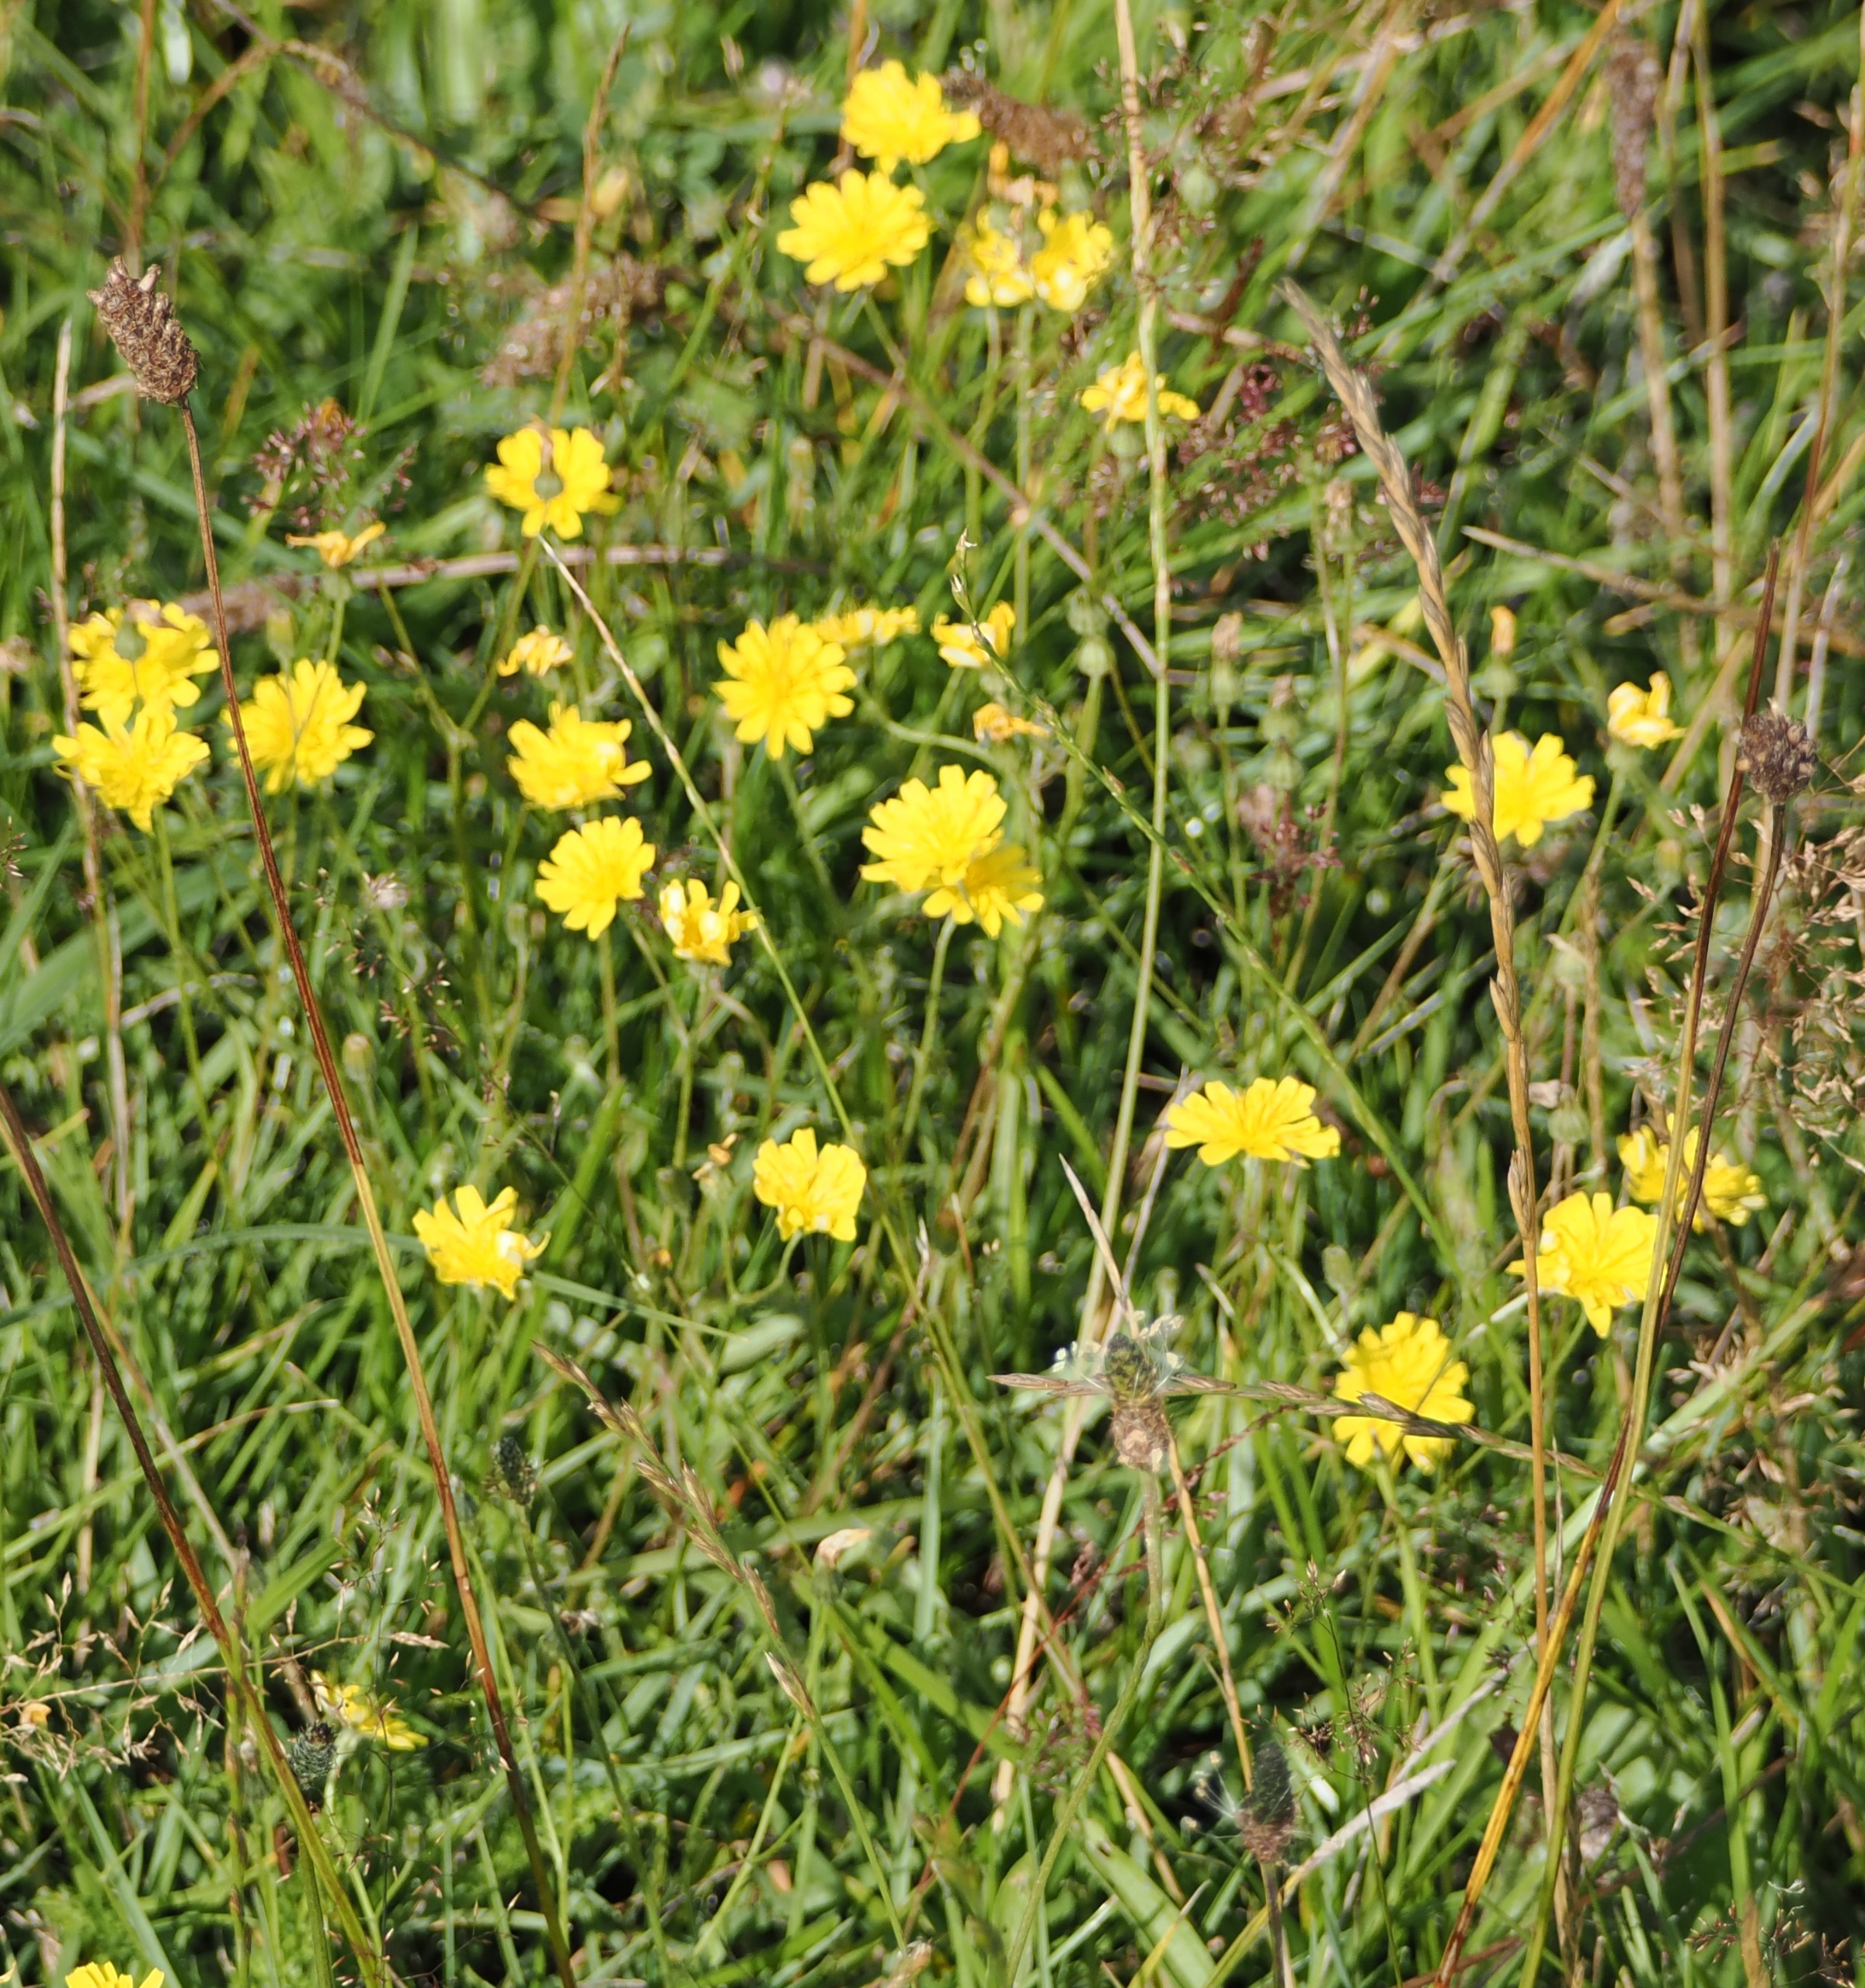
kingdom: Plantae
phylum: Tracheophyta
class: Magnoliopsida
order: Asterales
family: Asteraceae
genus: Crepis
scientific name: Crepis capillaris
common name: Grøn høgeskæg
